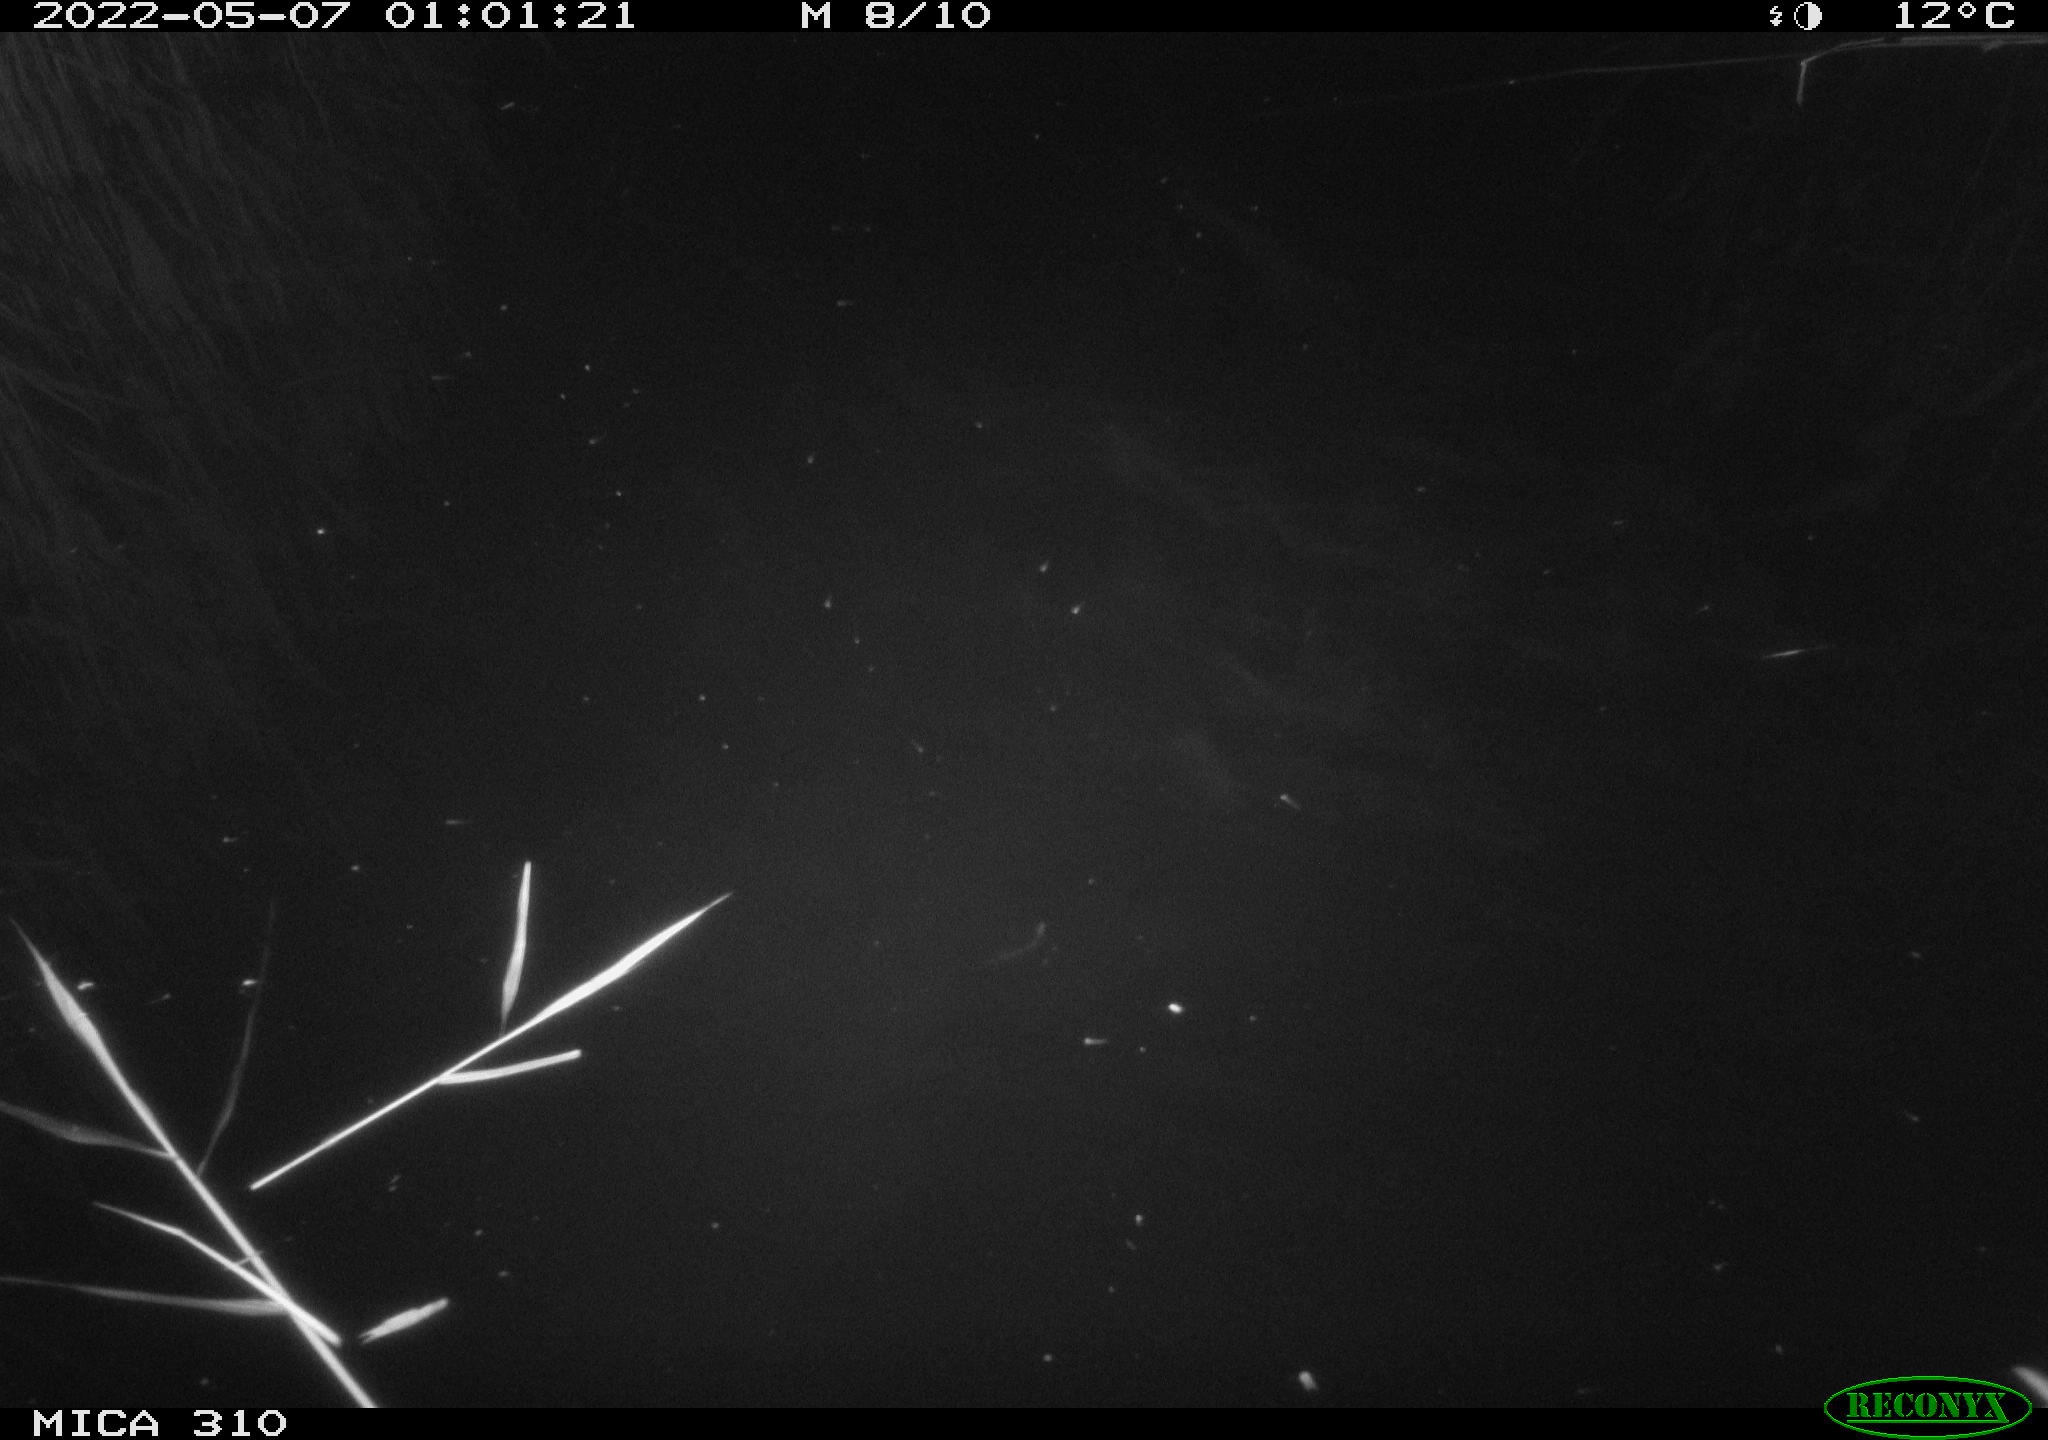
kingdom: Animalia
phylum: Chordata
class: Aves
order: Anseriformes
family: Anatidae
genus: Anas
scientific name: Anas platyrhynchos
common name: Mallard
